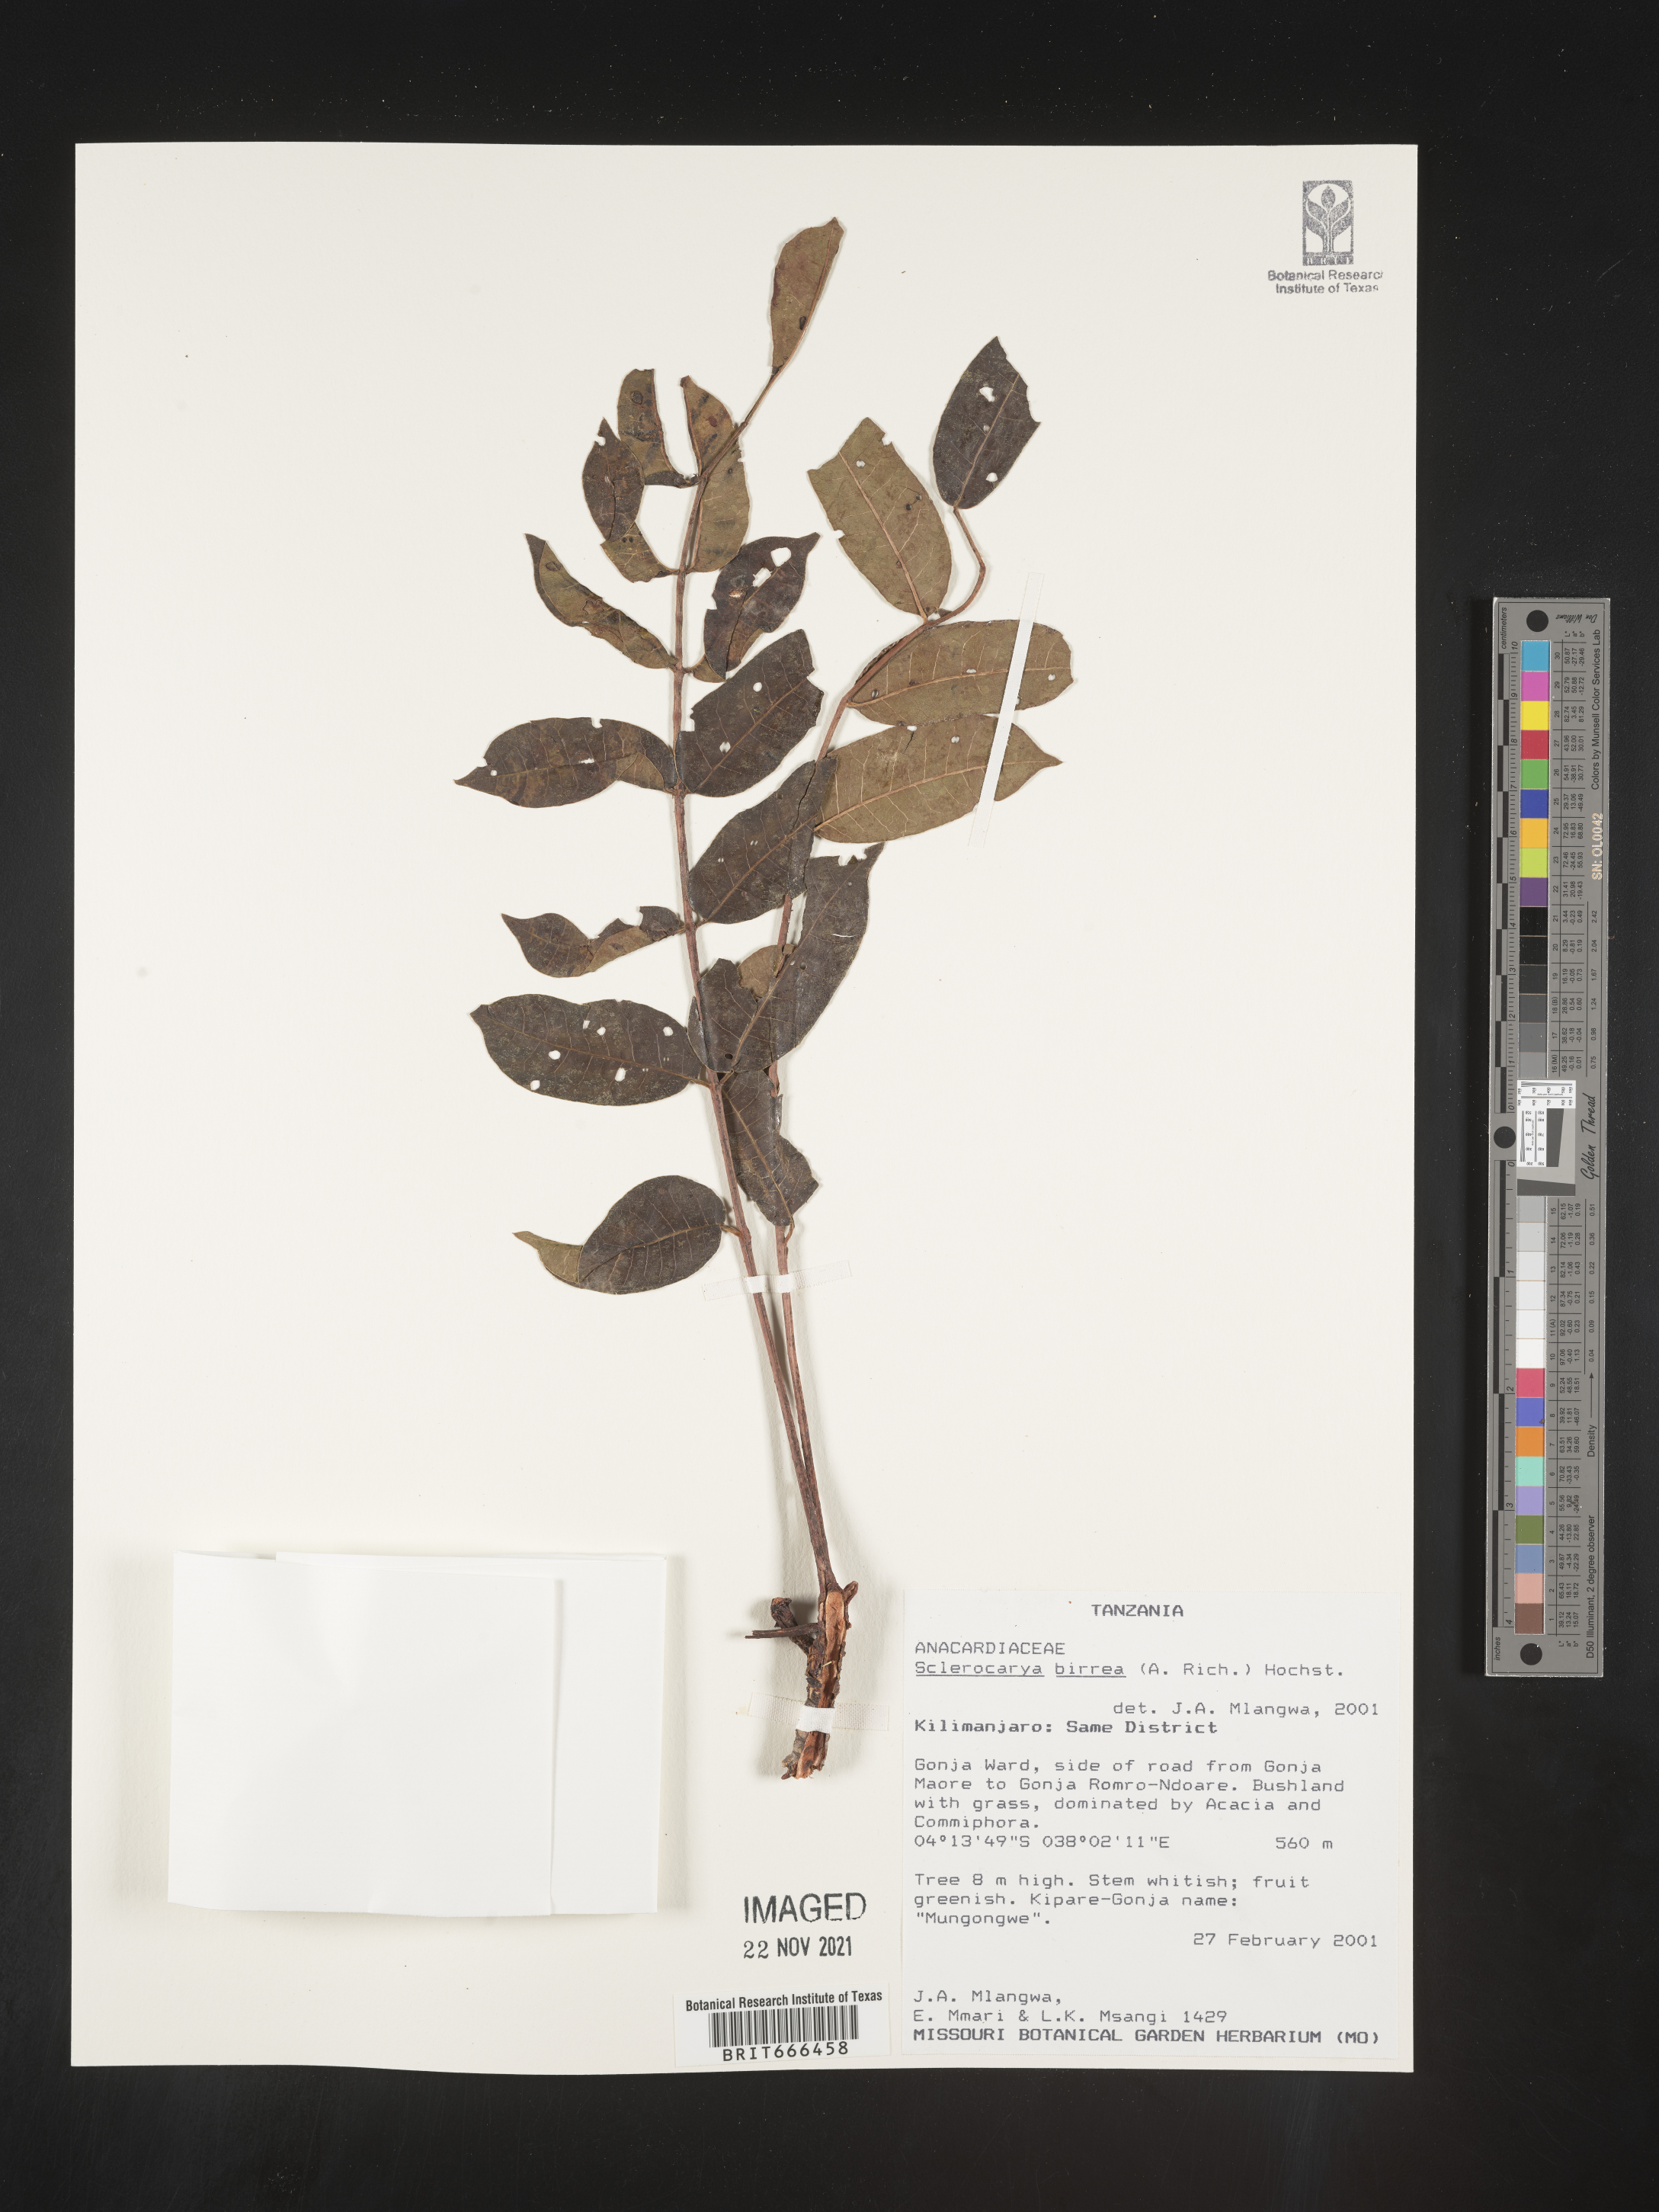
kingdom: Plantae
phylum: Tracheophyta
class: Magnoliopsida
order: Sapindales
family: Anacardiaceae
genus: Sclerocarya
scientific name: Sclerocarya birrea
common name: Marula
